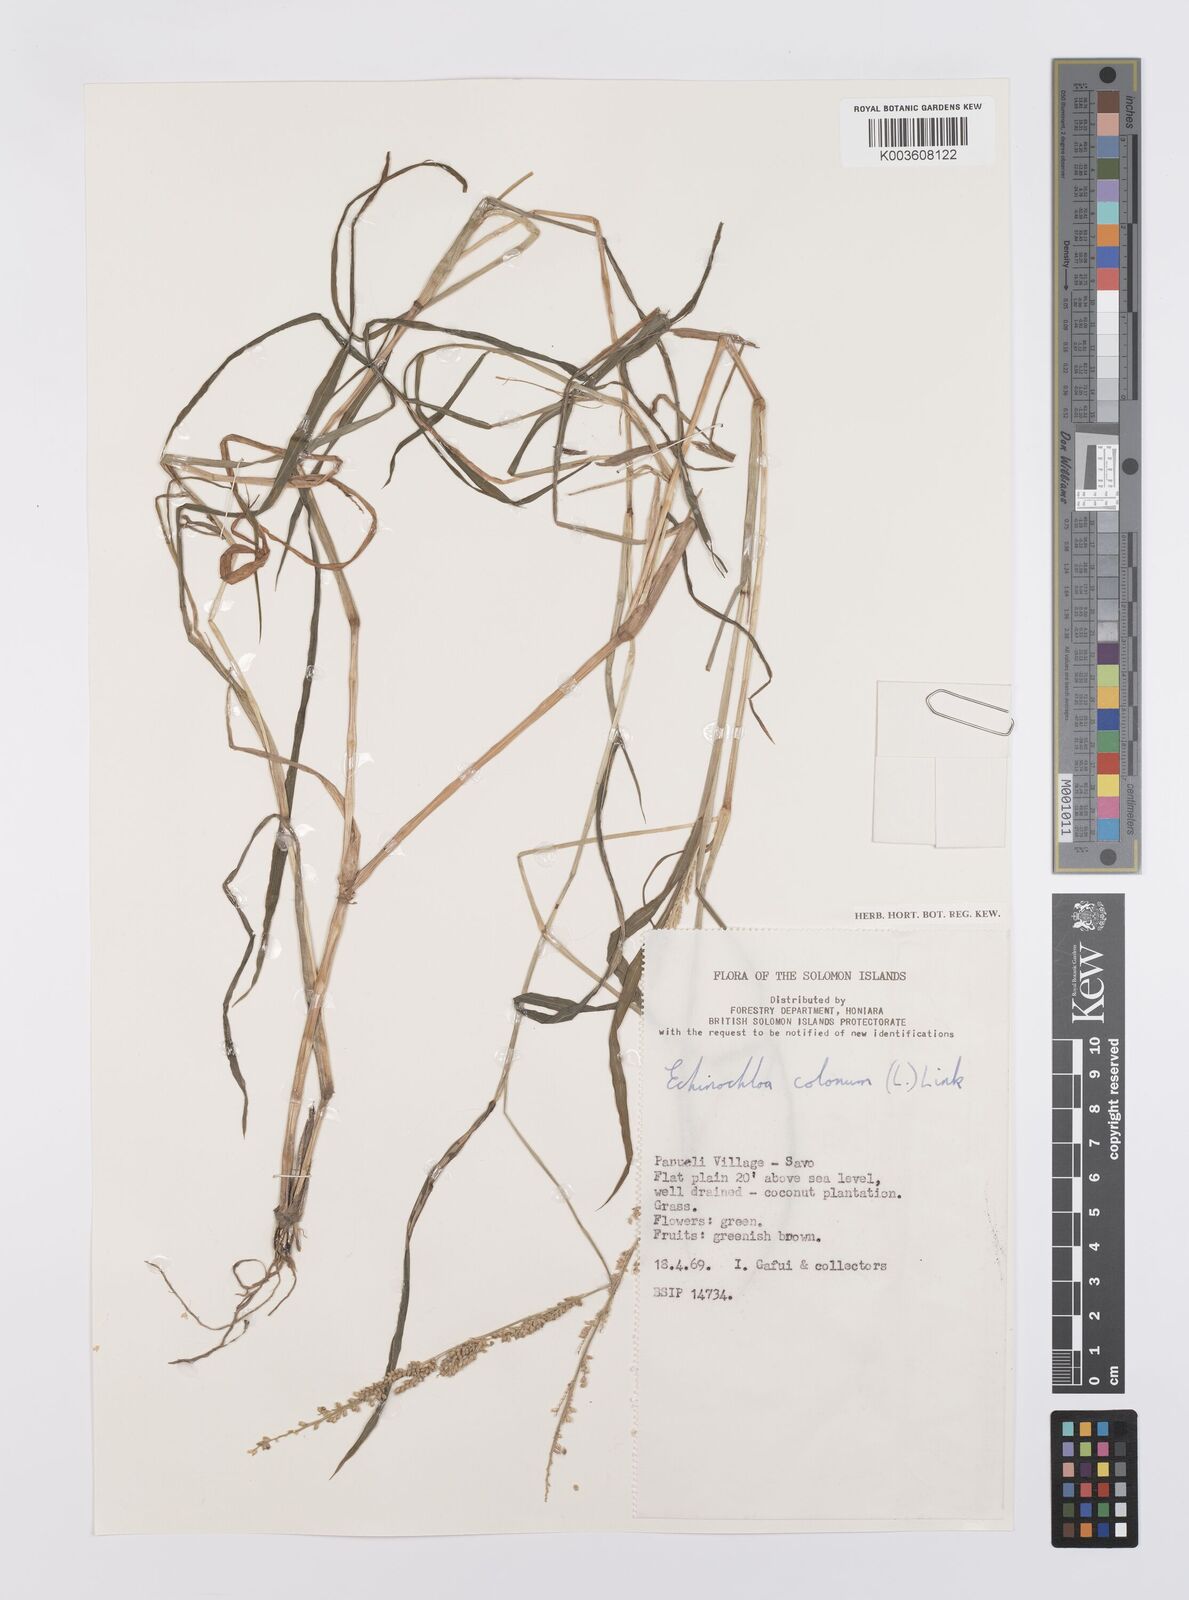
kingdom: Plantae
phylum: Tracheophyta
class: Liliopsida
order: Poales
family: Poaceae
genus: Echinochloa
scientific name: Echinochloa colonum
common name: Jungle rice
